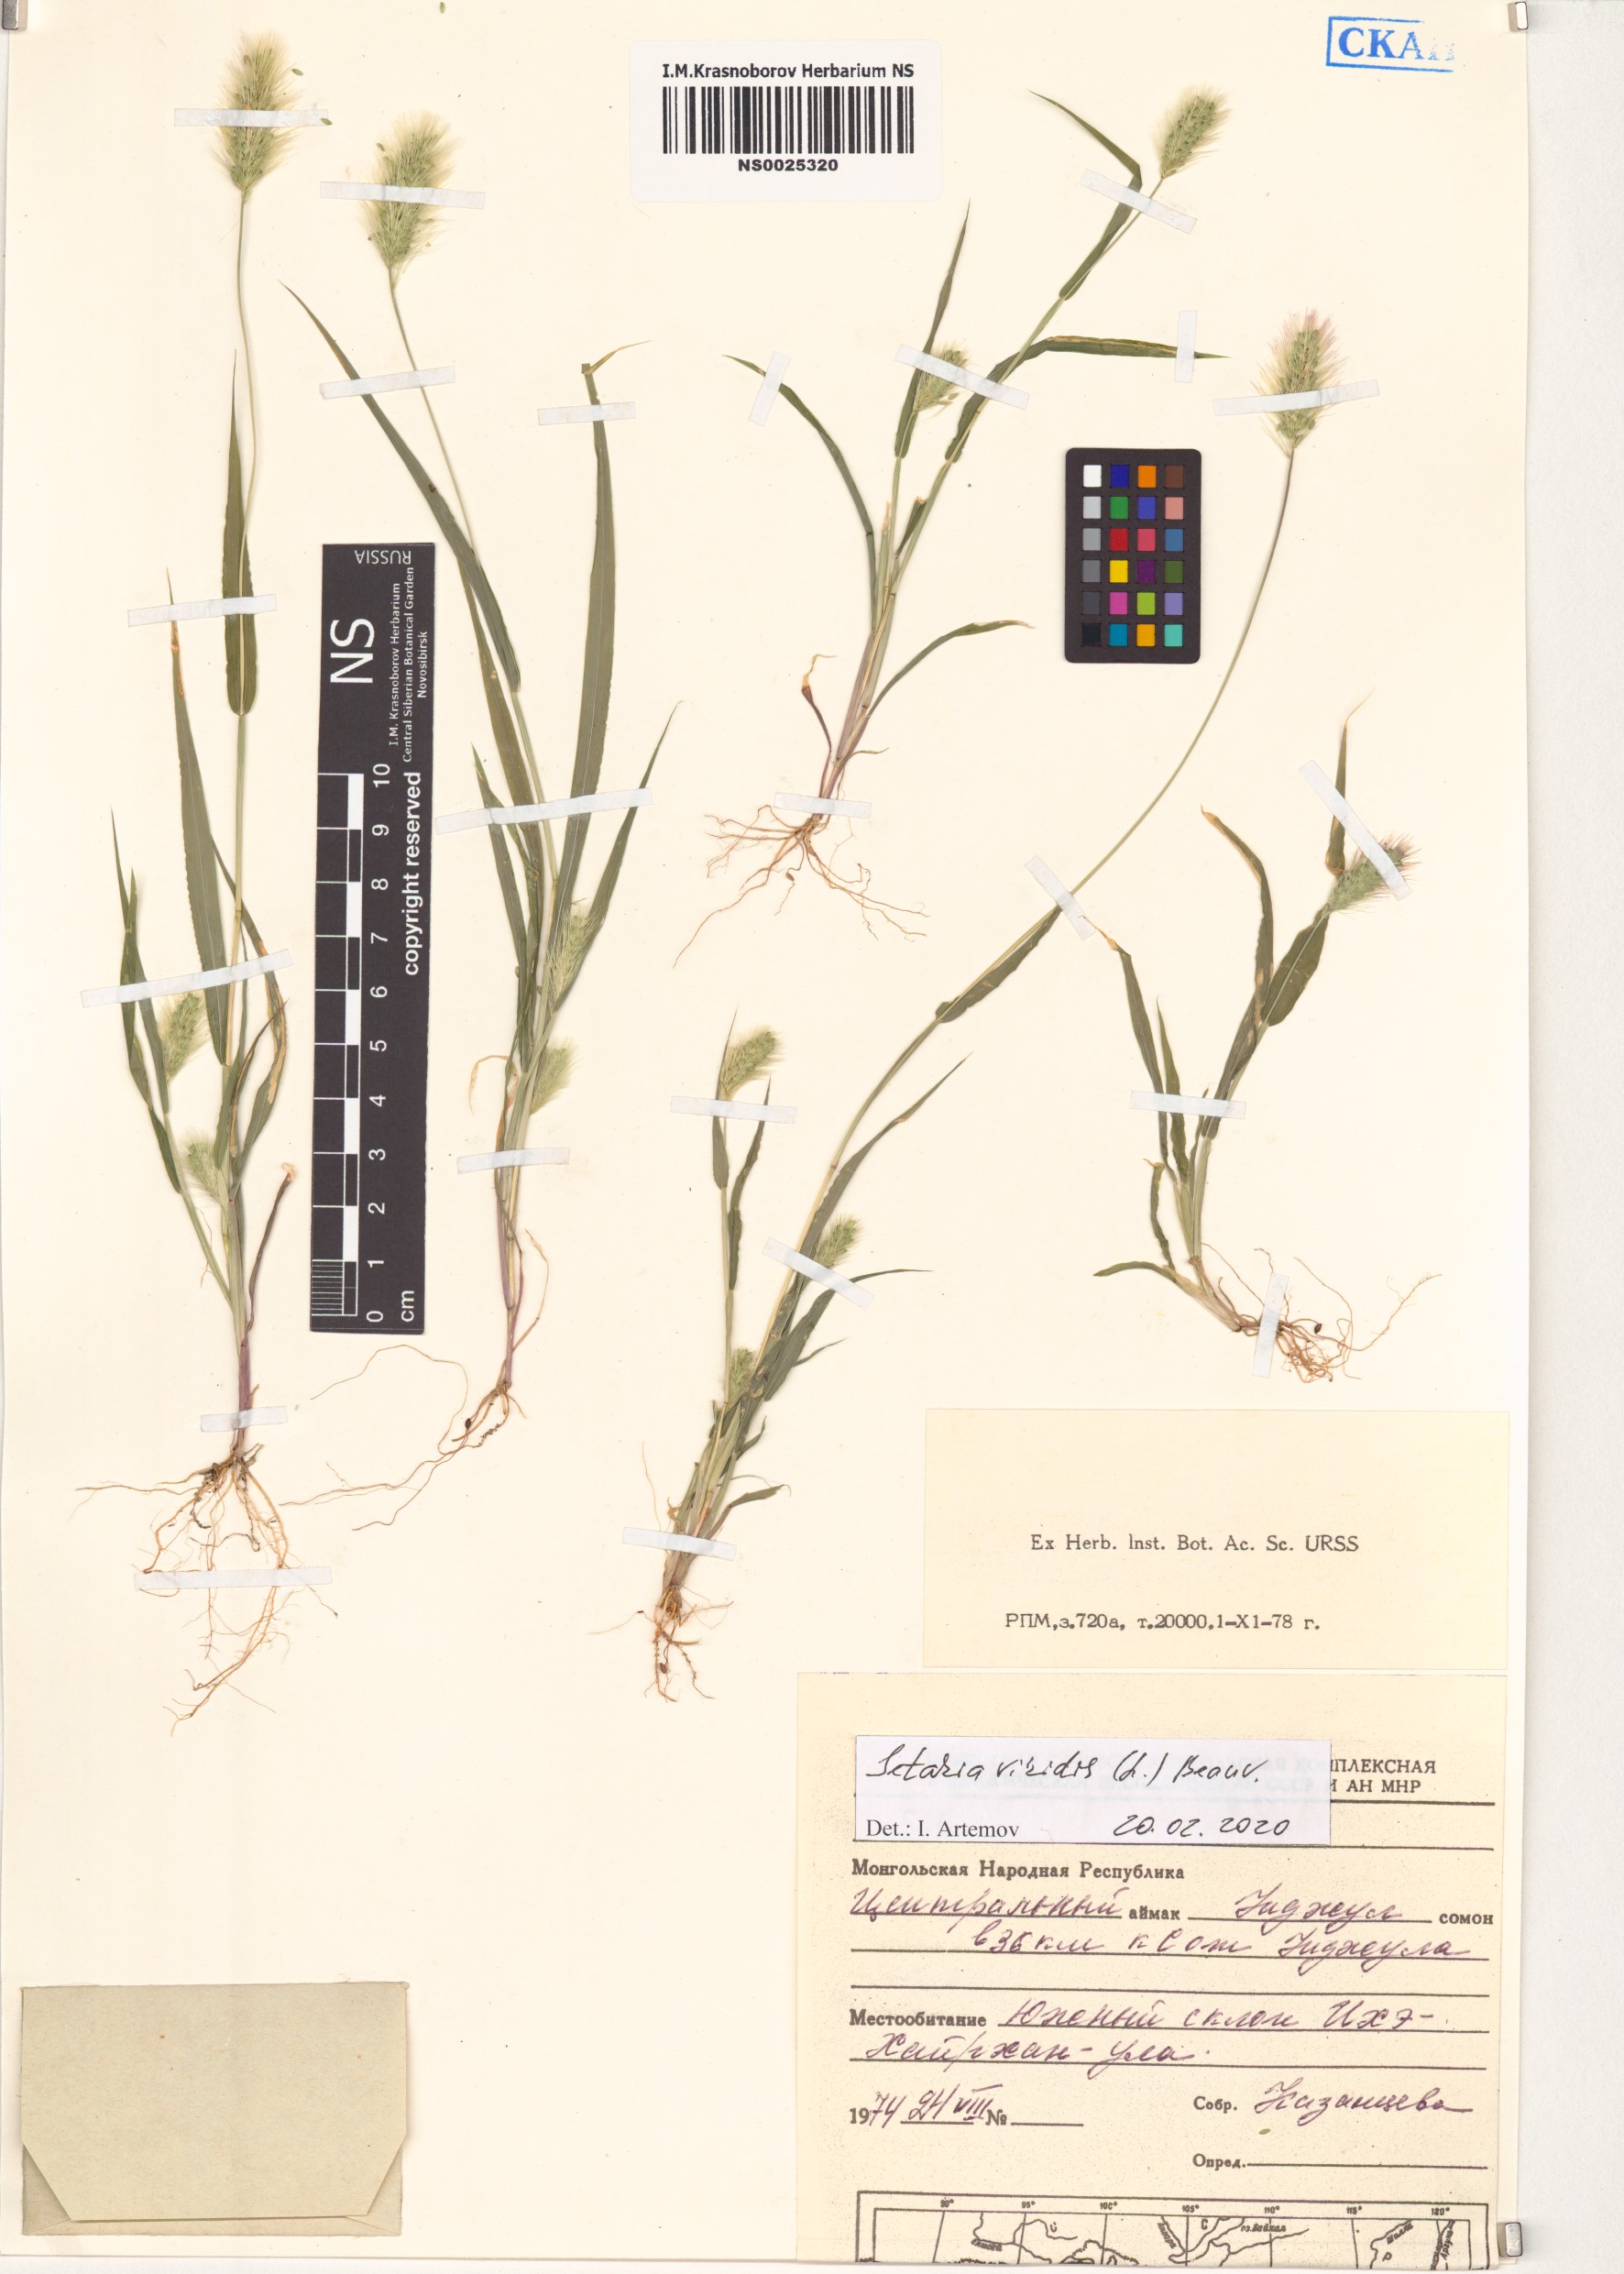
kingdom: Plantae
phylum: Tracheophyta
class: Liliopsida
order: Poales
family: Poaceae
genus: Setaria
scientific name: Setaria viridis
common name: Green bristlegrass
